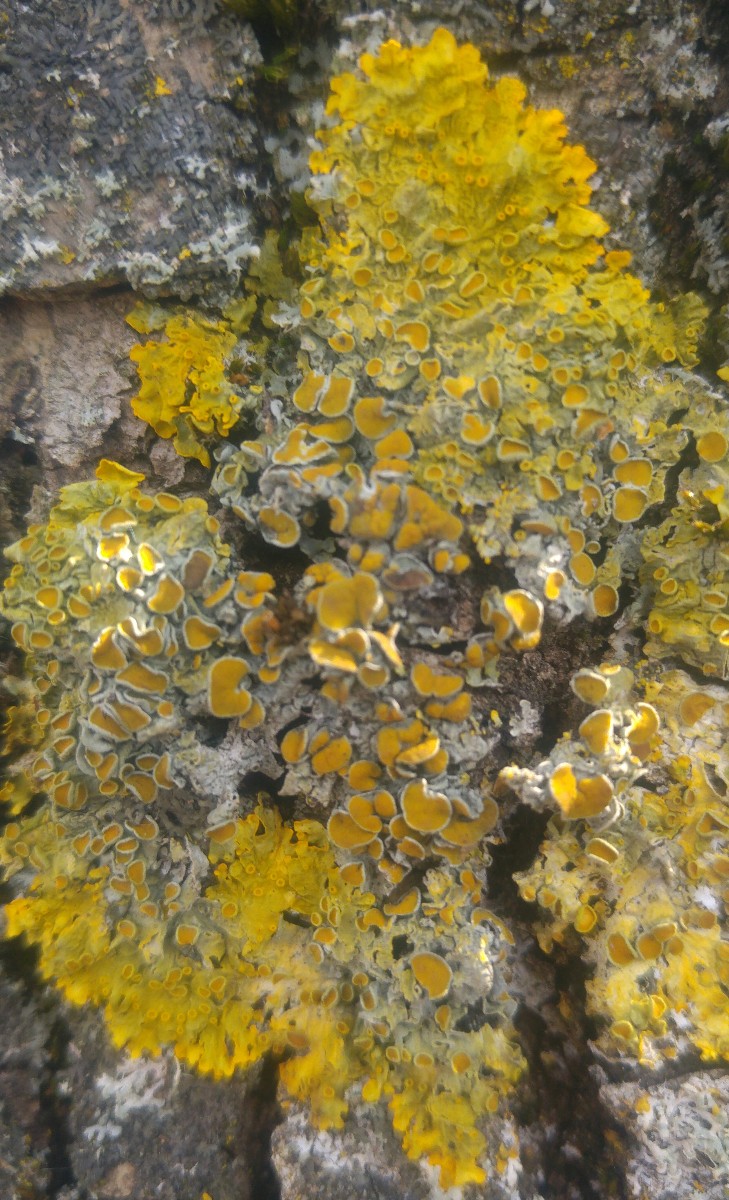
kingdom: Fungi
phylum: Ascomycota
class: Lecanoromycetes
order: Teloschistales
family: Teloschistaceae
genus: Xanthoria
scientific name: Xanthoria parietina
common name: almindelig væggelav
